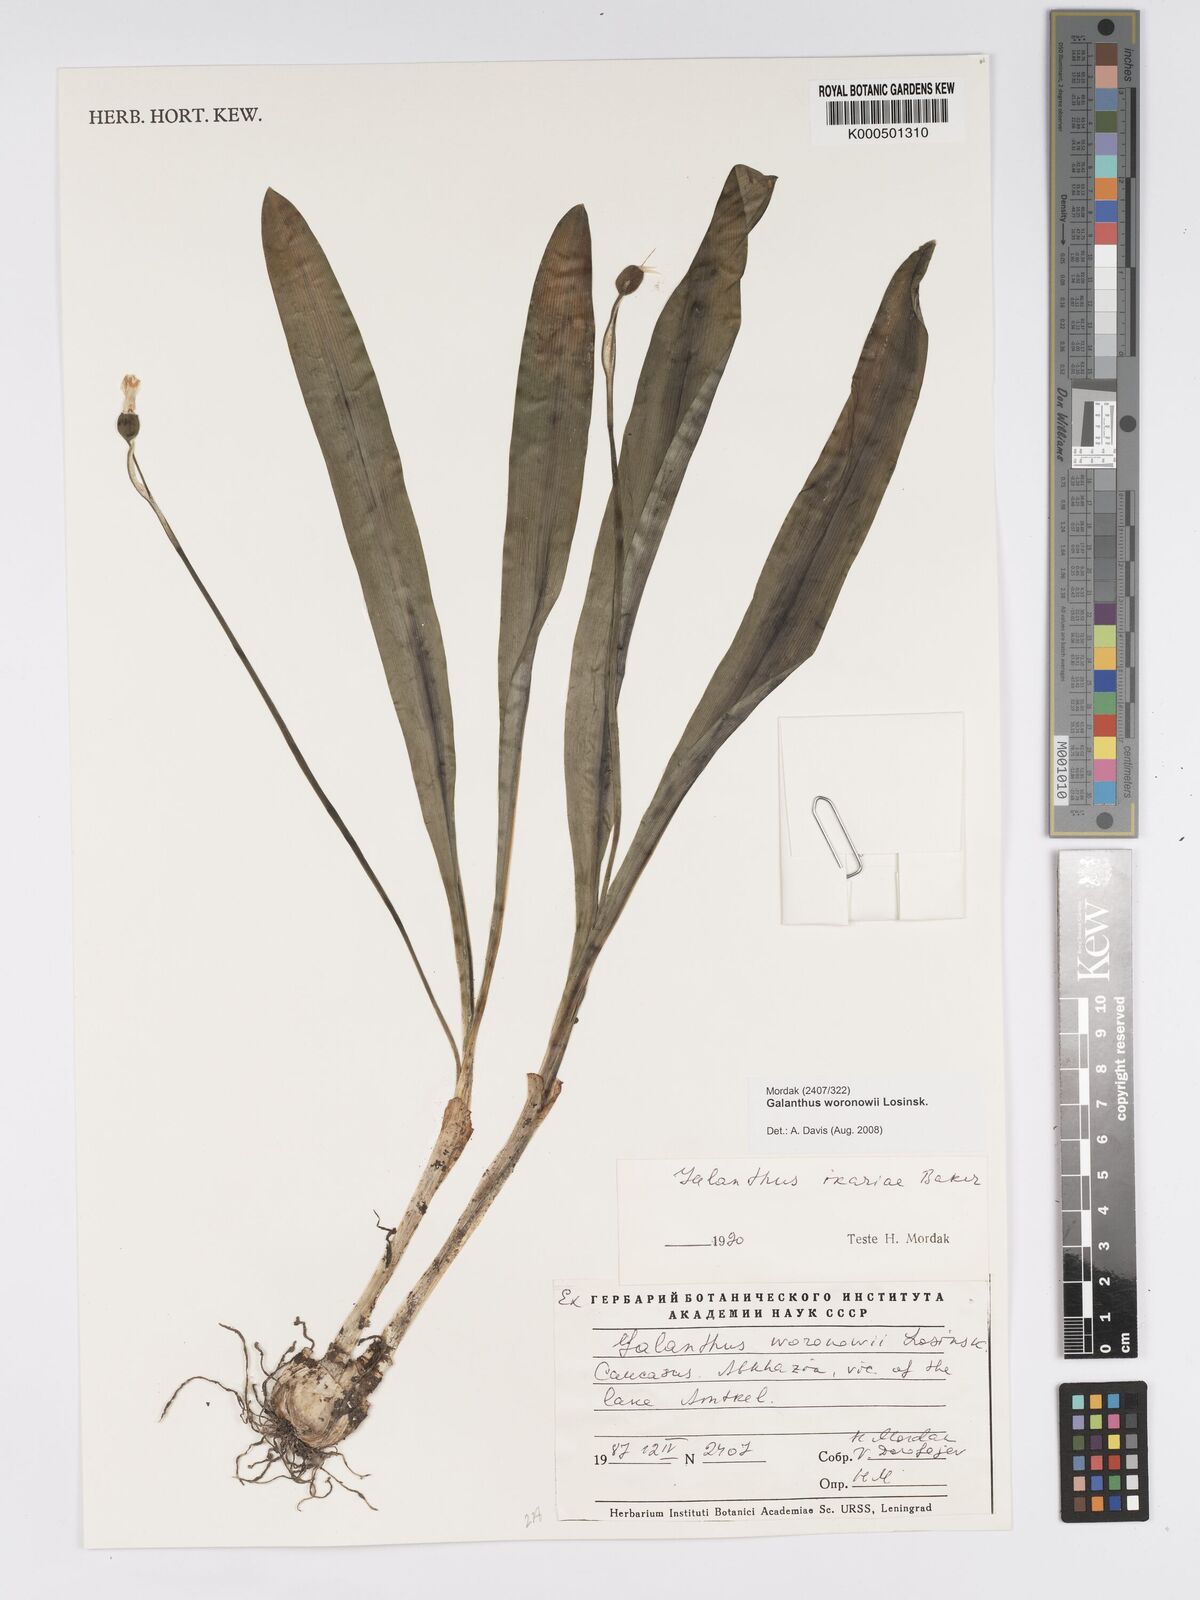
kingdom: Plantae
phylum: Tracheophyta
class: Liliopsida
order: Asparagales
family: Amaryllidaceae
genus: Galanthus
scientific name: Galanthus woronowii
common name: Green snowdrop
